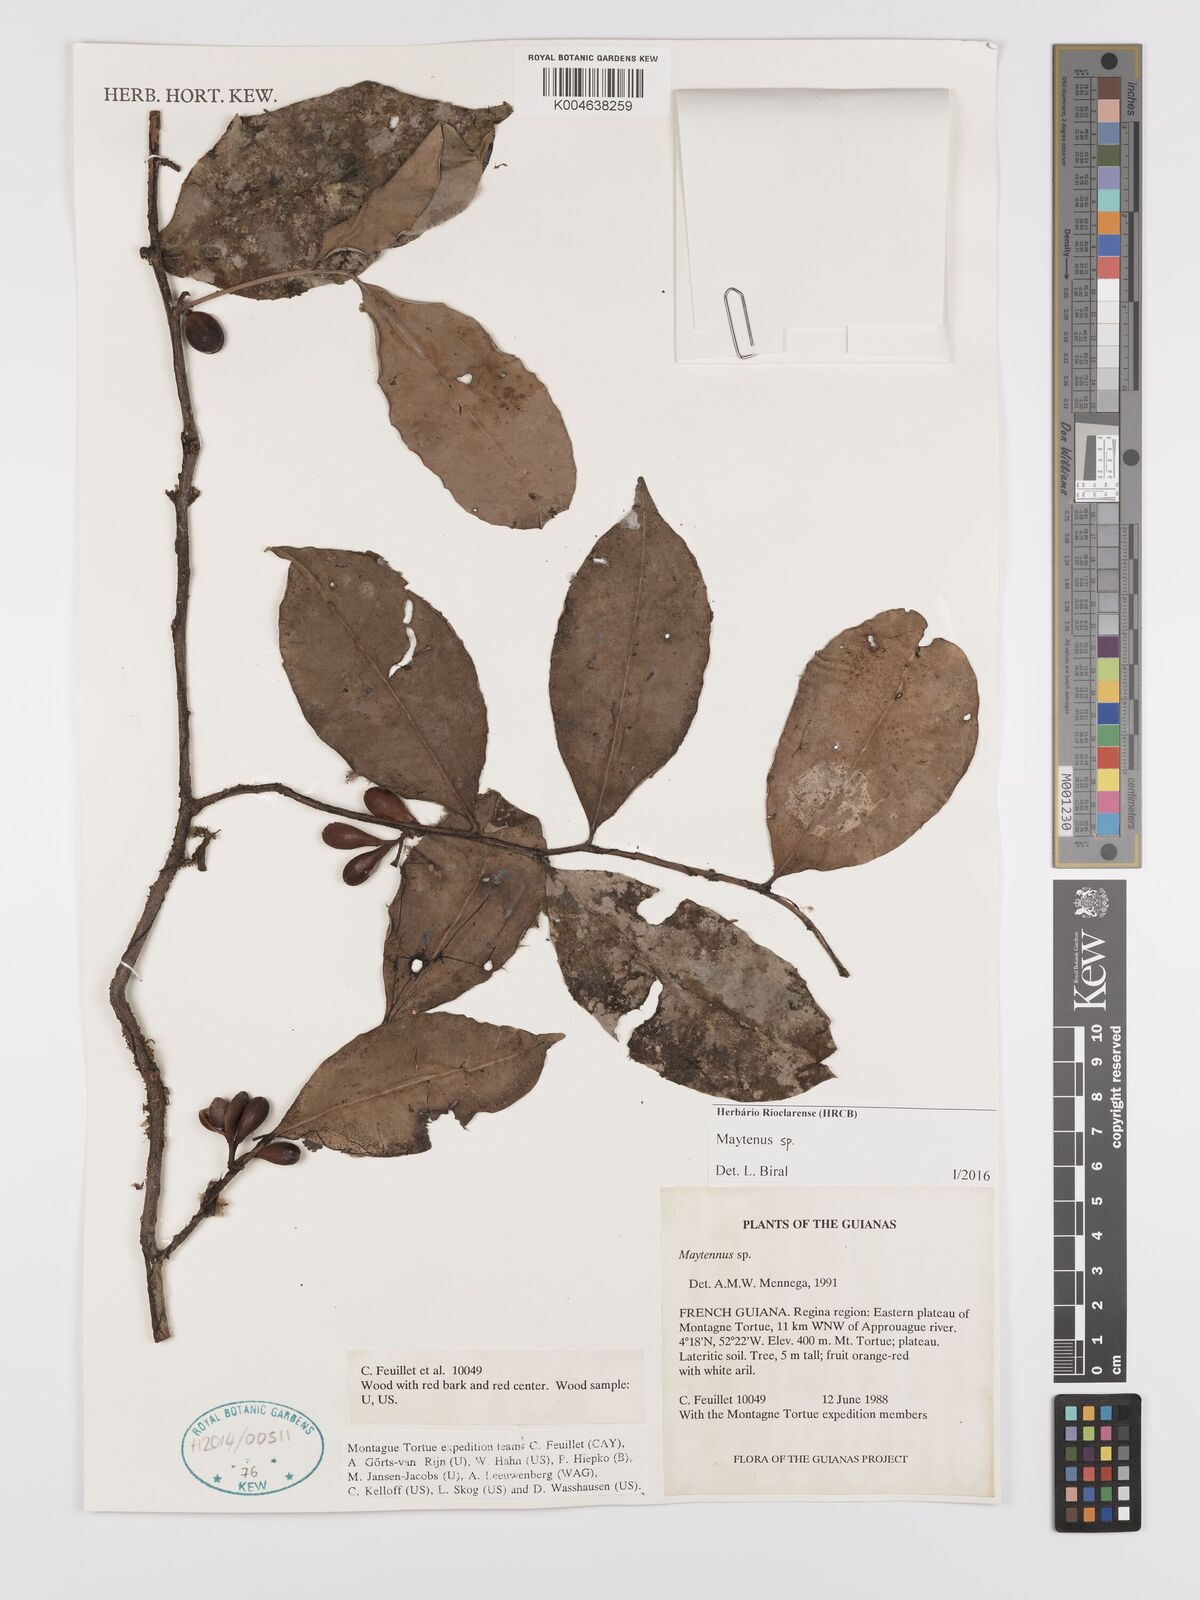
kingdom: Plantae
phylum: Tracheophyta
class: Magnoliopsida
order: Celastrales
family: Celastraceae
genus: Maytenus
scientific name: Maytenus
